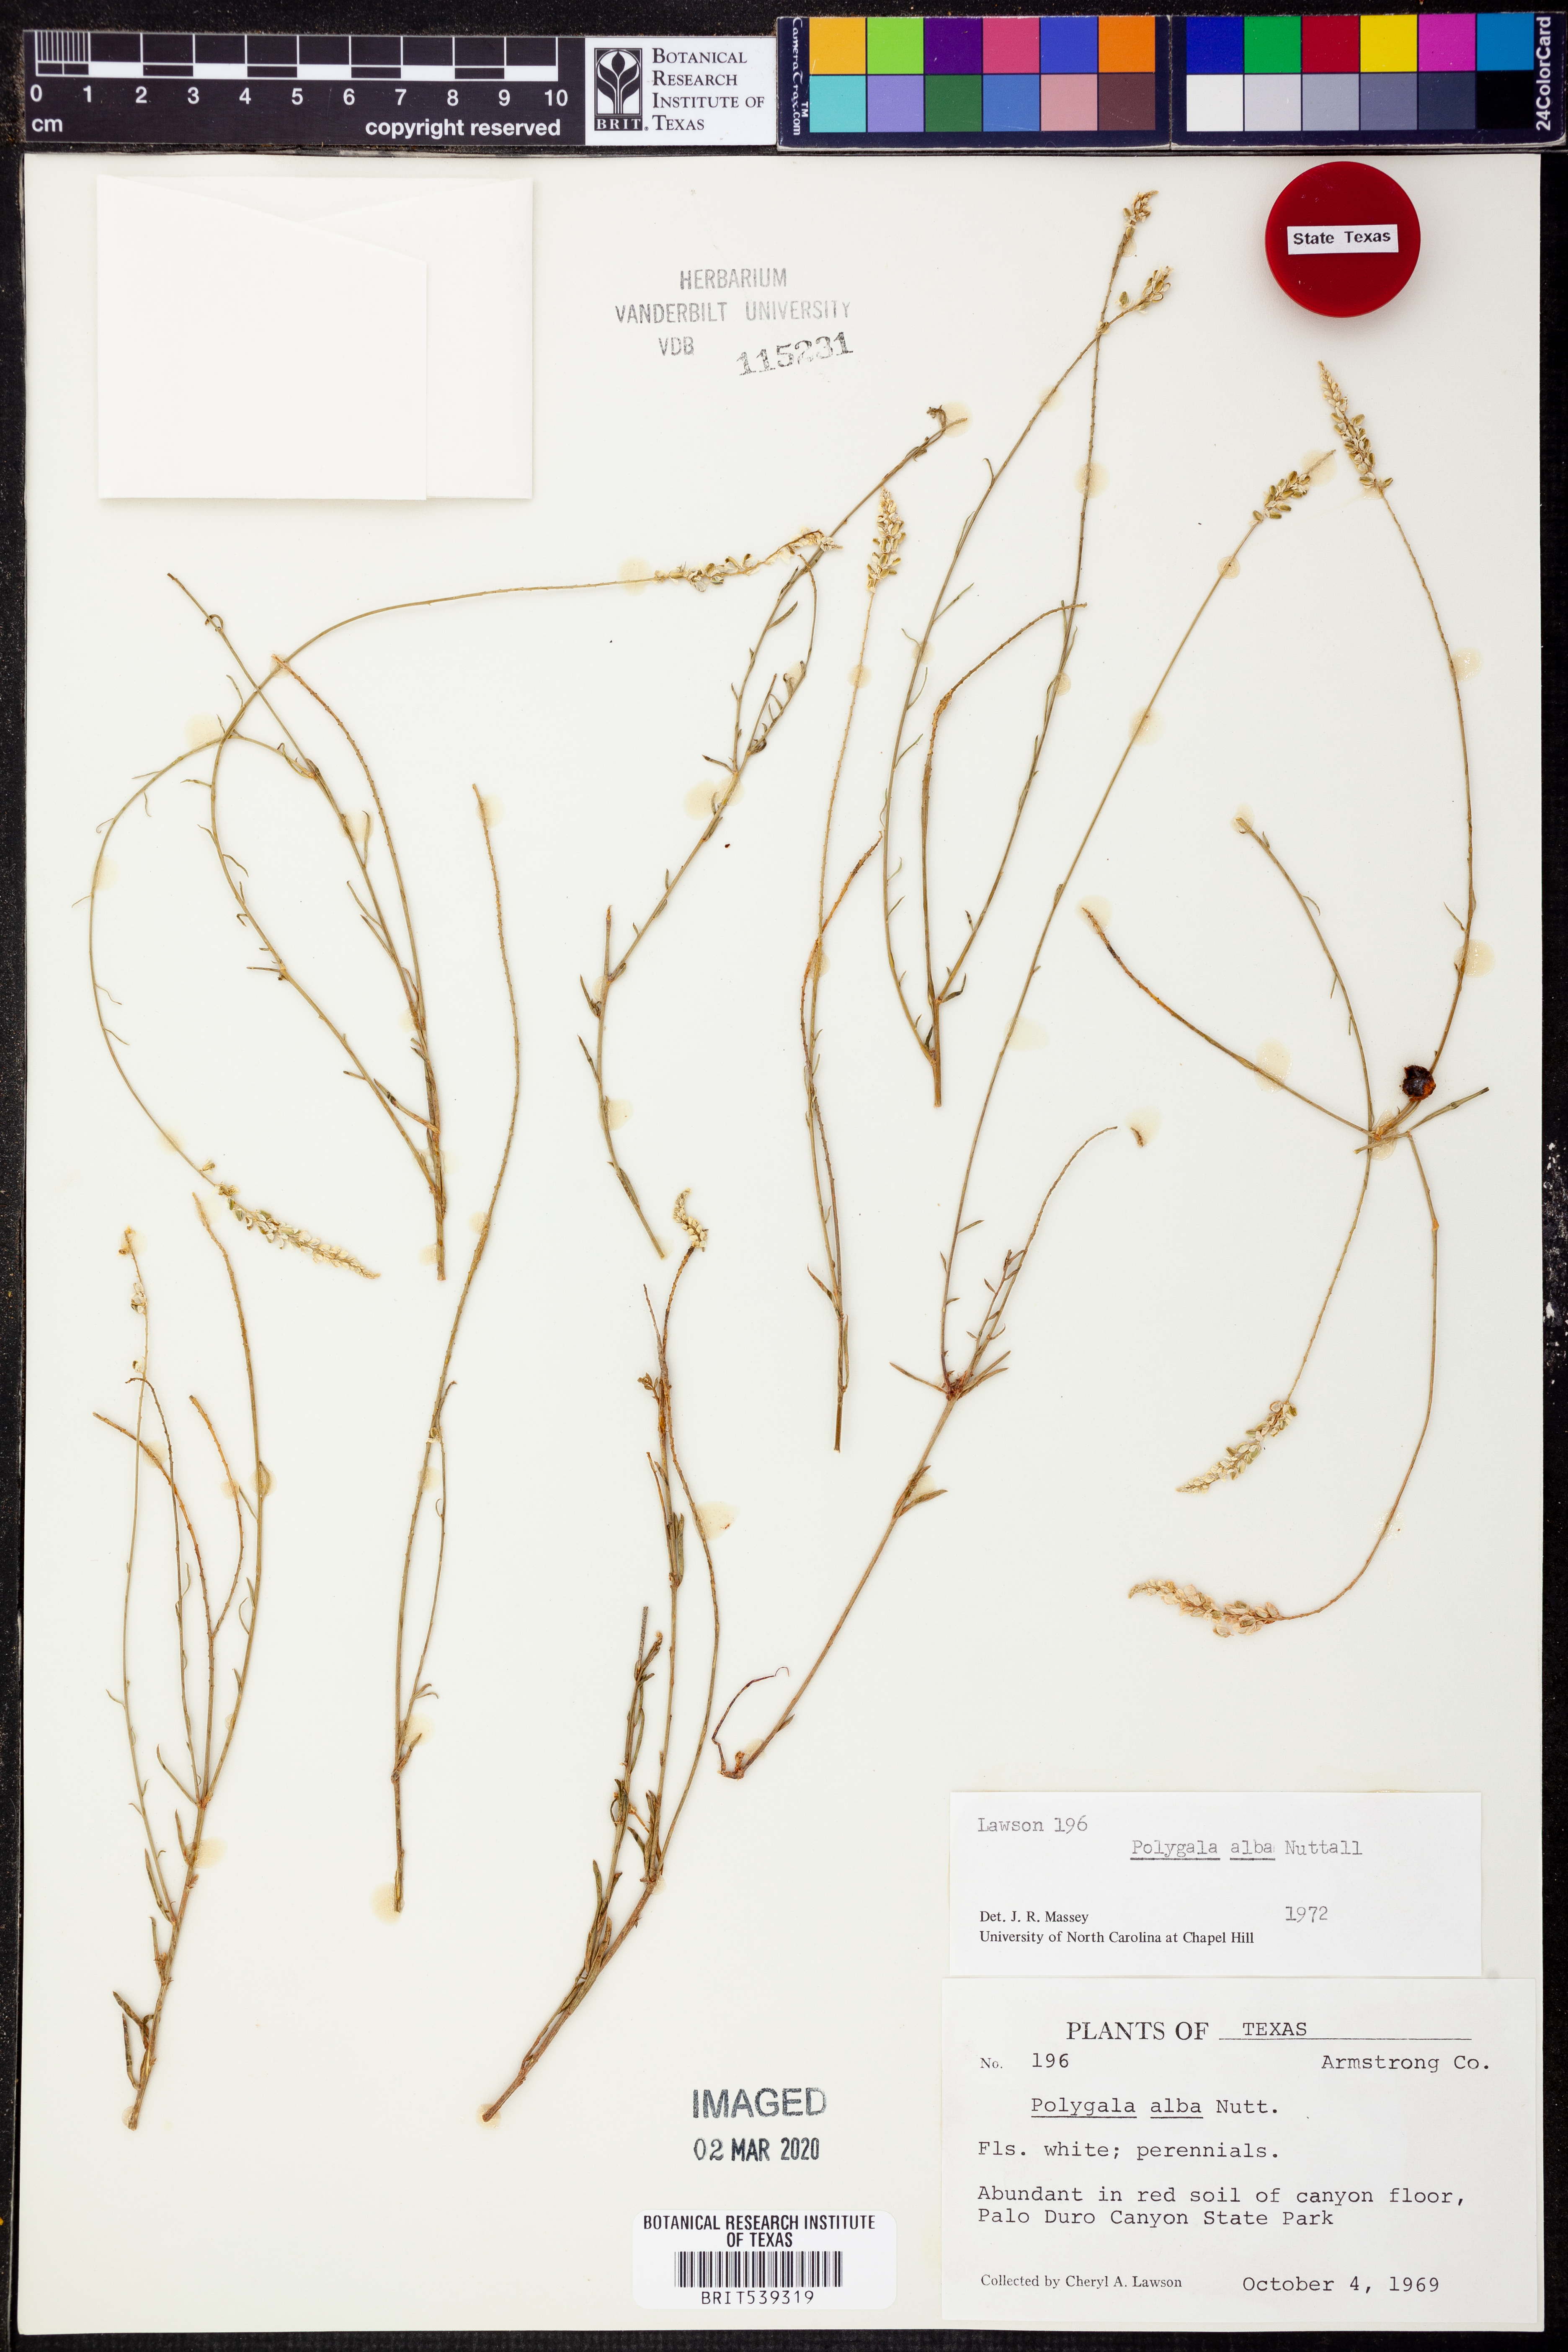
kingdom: Plantae
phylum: Tracheophyta
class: Magnoliopsida
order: Fabales
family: Polygalaceae
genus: Polygala
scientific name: Polygala alba
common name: White milkwort
